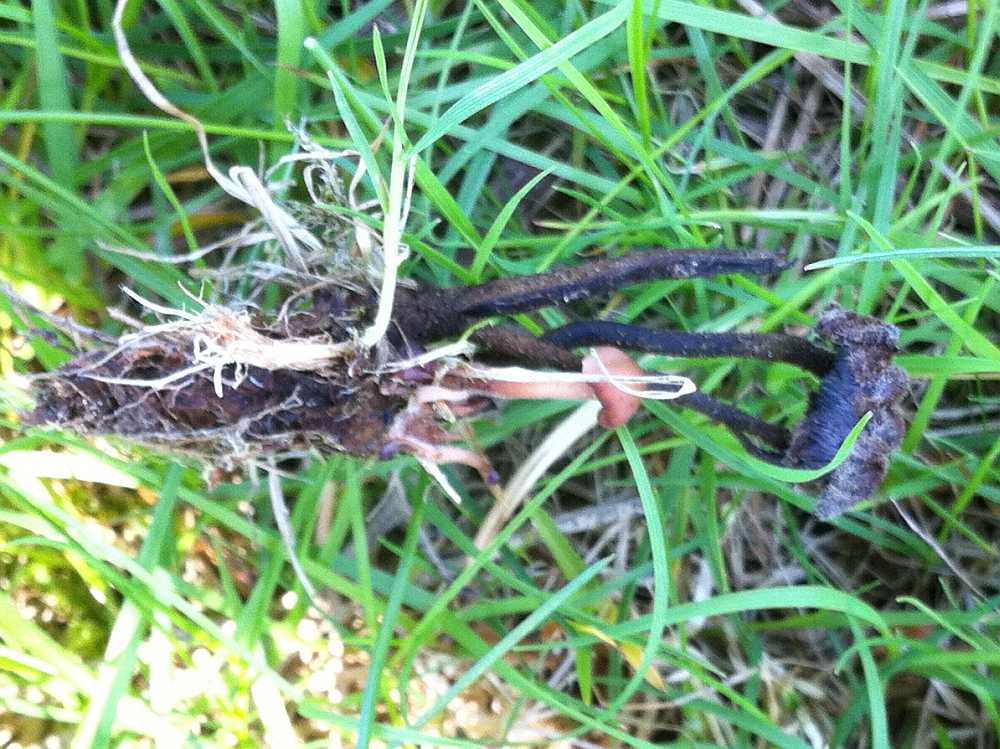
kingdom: Fungi
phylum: Basidiomycota
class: Agaricomycetes
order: Russulales
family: Auriscalpiaceae
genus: Auriscalpium
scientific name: Auriscalpium vulgare
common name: koglepigsvamp
